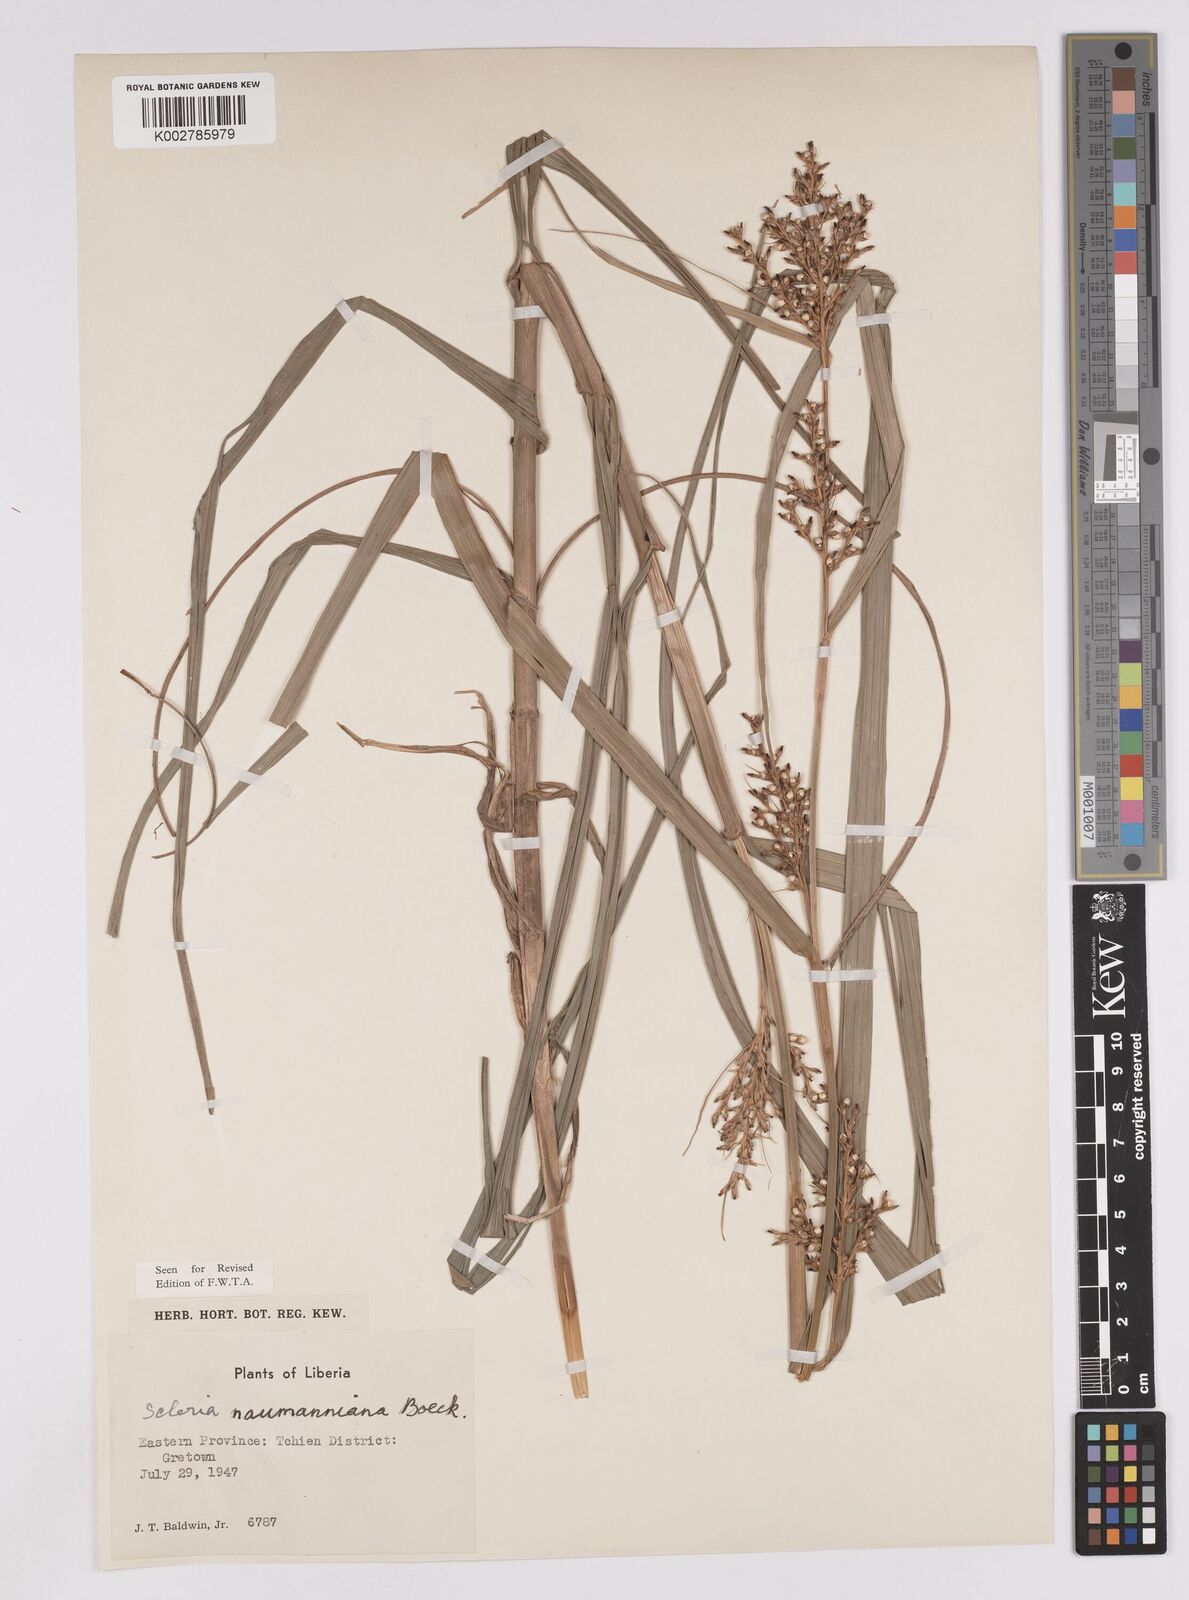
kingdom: Plantae
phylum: Tracheophyta
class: Liliopsida
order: Poales
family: Cyperaceae
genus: Scleria
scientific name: Scleria naumanniana
